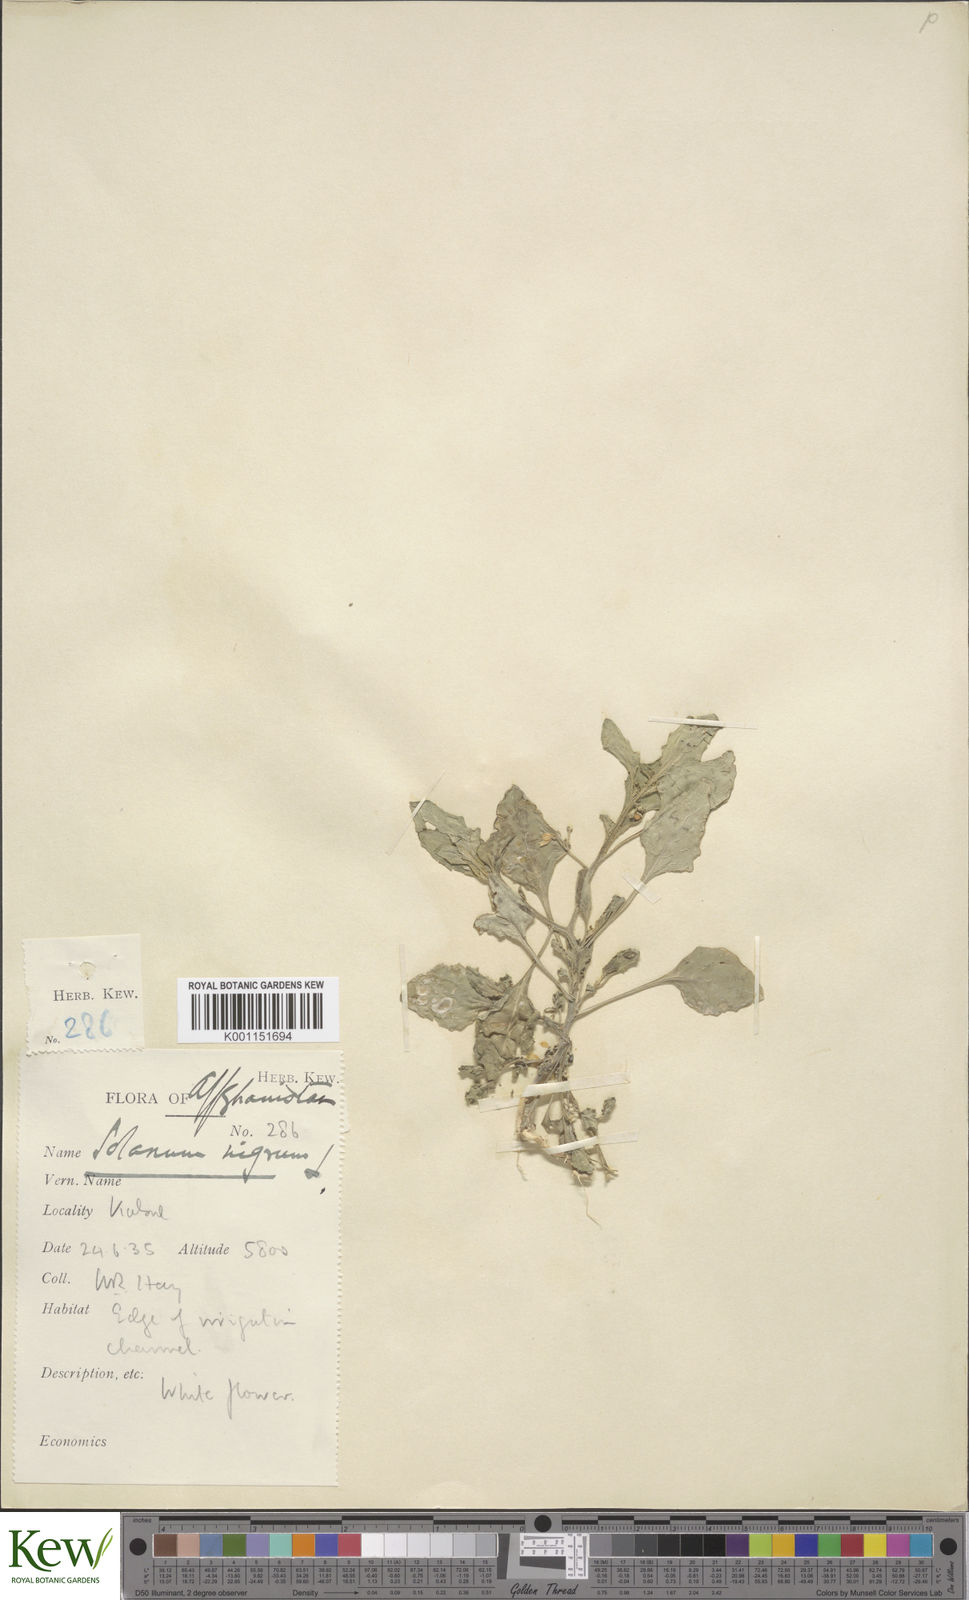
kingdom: Plantae
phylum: Tracheophyta
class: Magnoliopsida
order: Solanales
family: Solanaceae
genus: Solanum
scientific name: Solanum villosum
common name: Red nightshade
